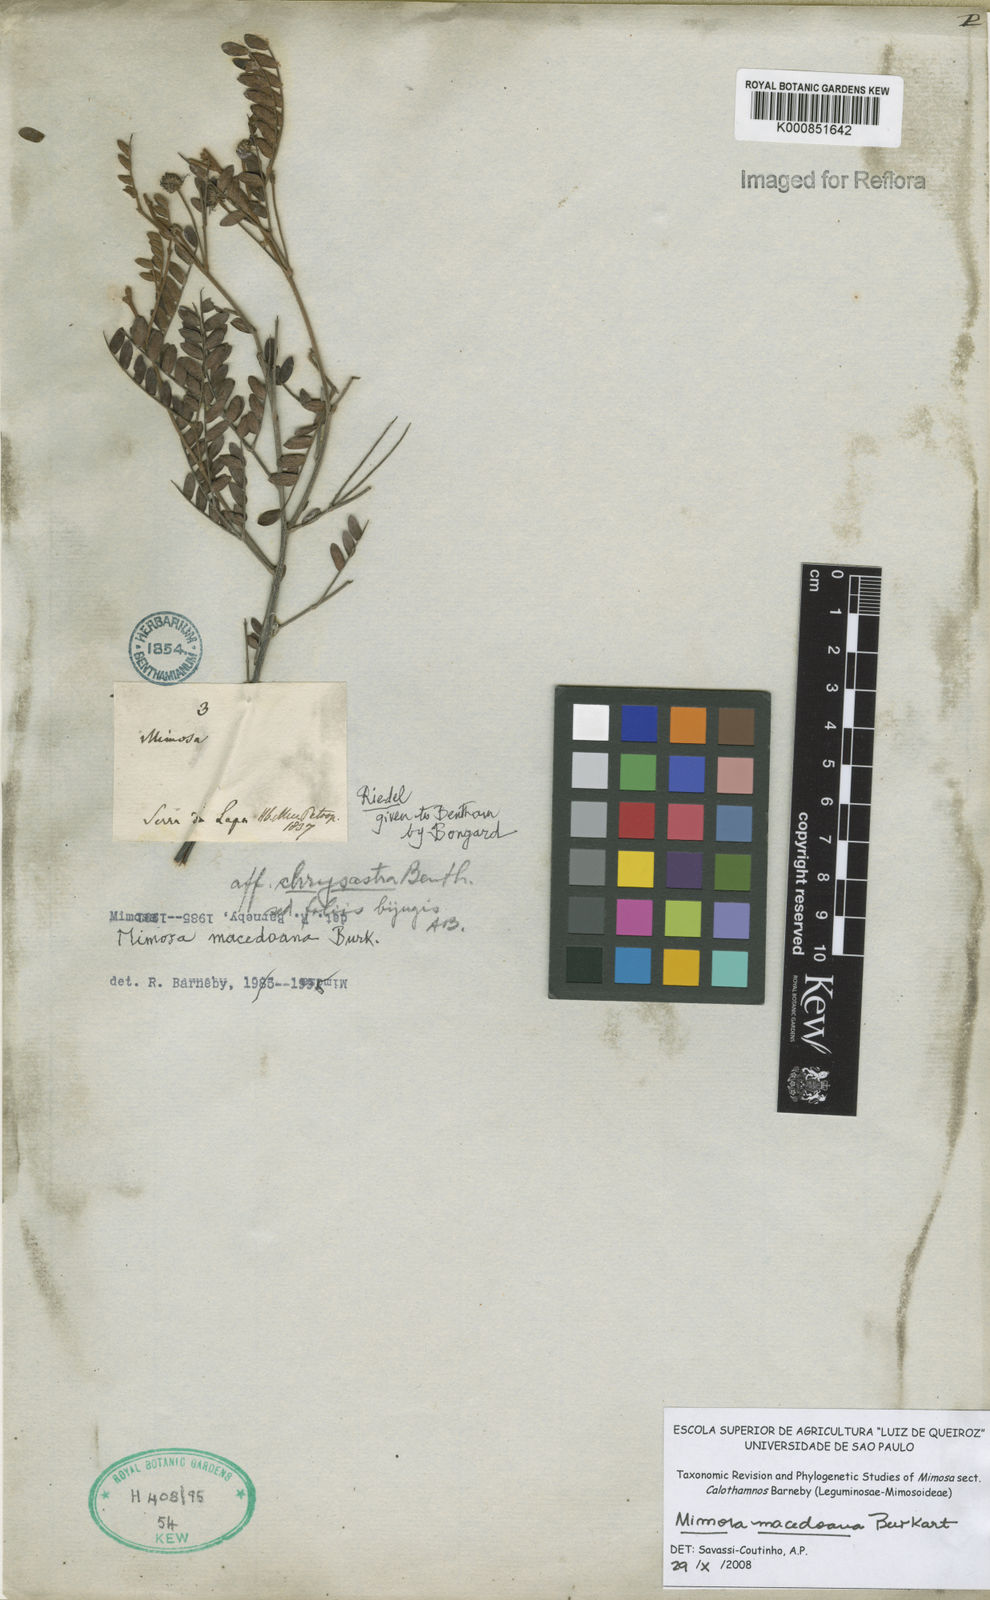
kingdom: Plantae
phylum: Tracheophyta
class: Magnoliopsida
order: Fabales
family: Fabaceae
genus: Mimosa
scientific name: Mimosa macedoana
